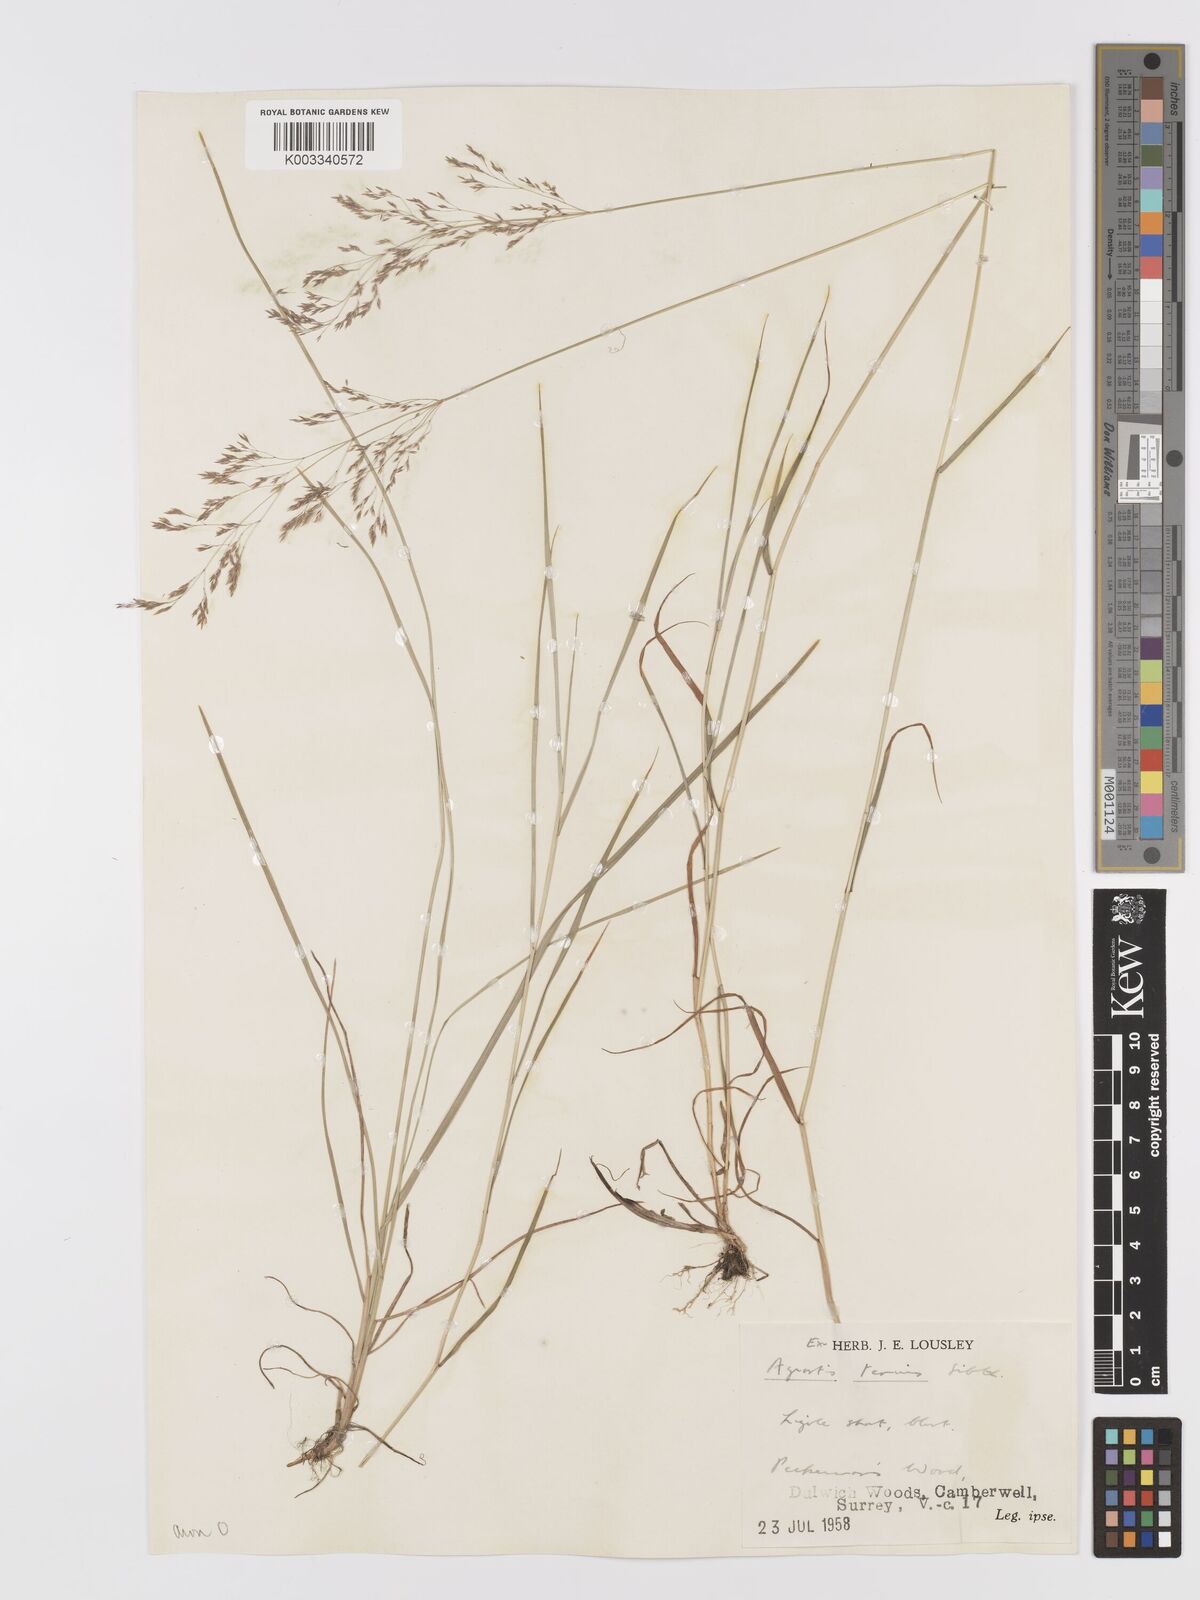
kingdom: Plantae
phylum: Tracheophyta
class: Liliopsida
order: Poales
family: Poaceae
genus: Agrostis
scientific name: Agrostis capillaris
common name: Colonial bentgrass
